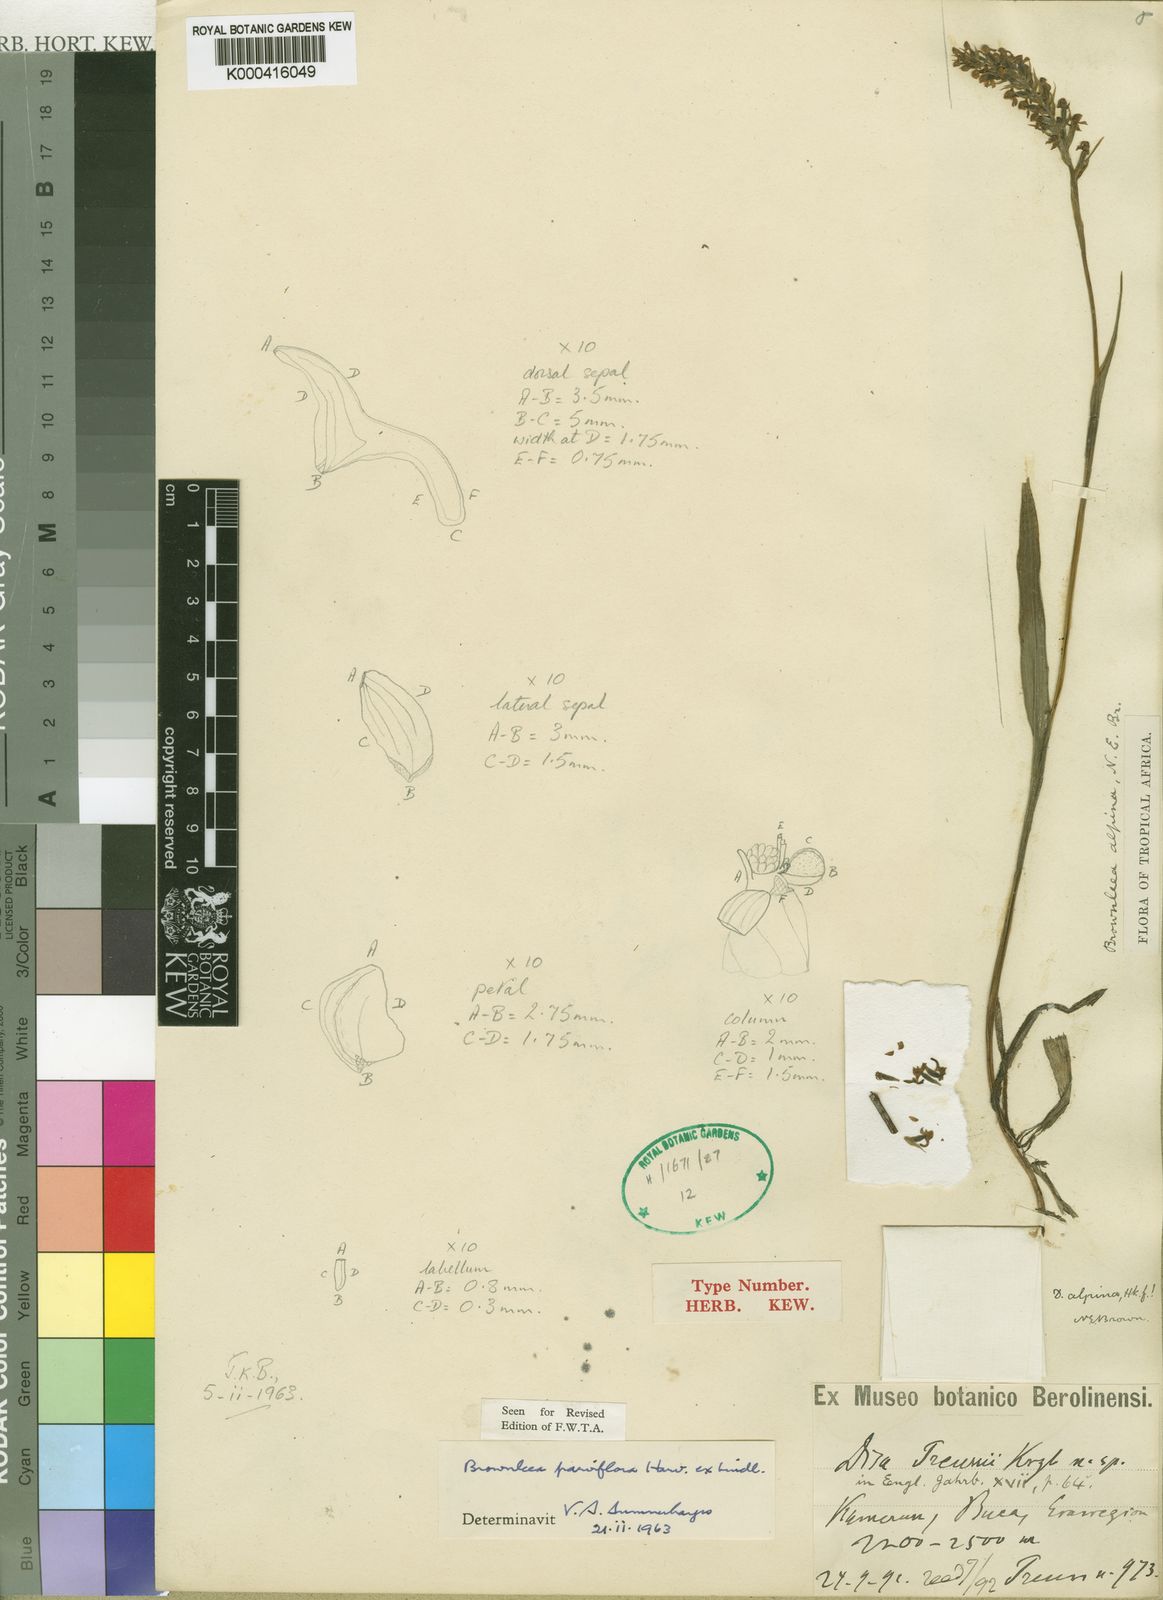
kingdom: Plantae
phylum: Tracheophyta
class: Liliopsida
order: Asparagales
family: Orchidaceae
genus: Brownleea
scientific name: Brownleea parviflora
